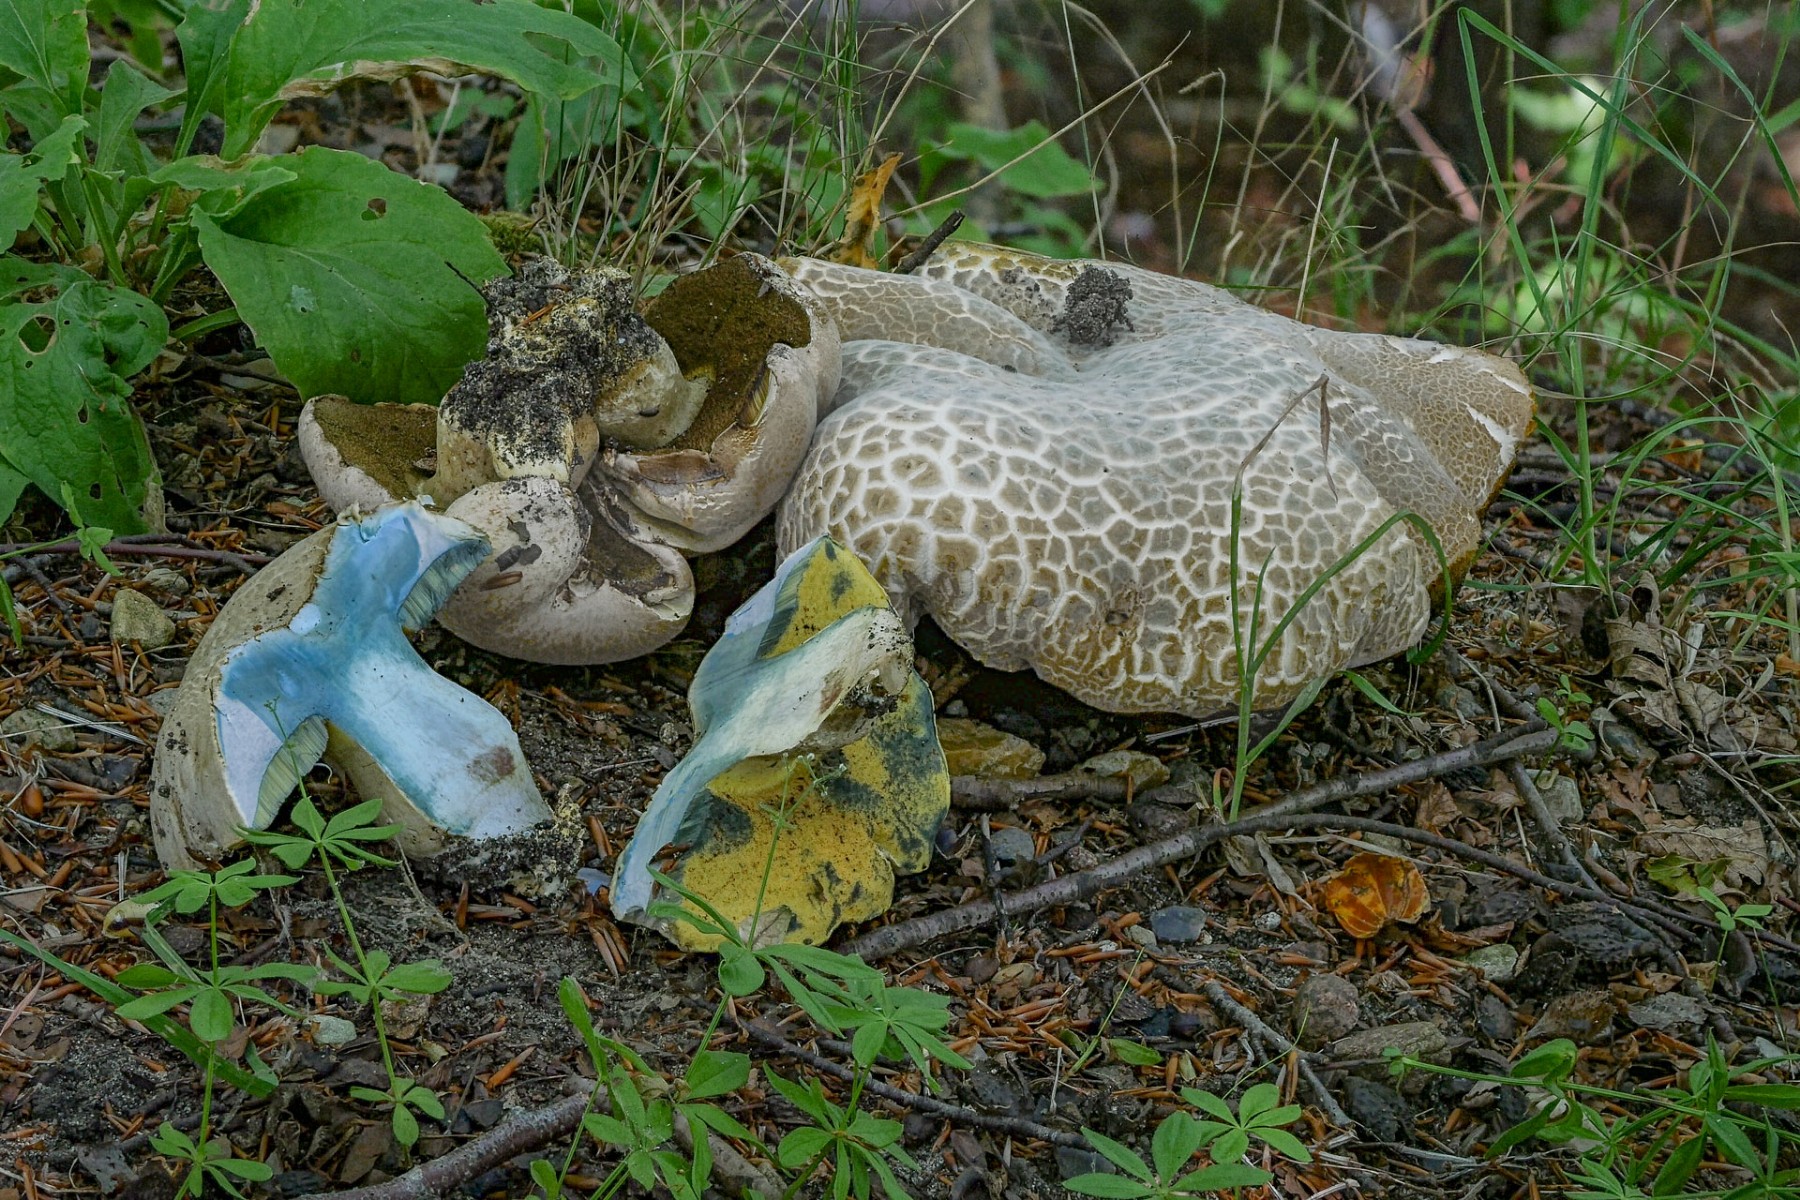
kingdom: Fungi
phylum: Basidiomycota
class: Agaricomycetes
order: Boletales
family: Boletaceae
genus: Caloboletus
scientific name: Caloboletus radicans
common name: rod-rørhat
